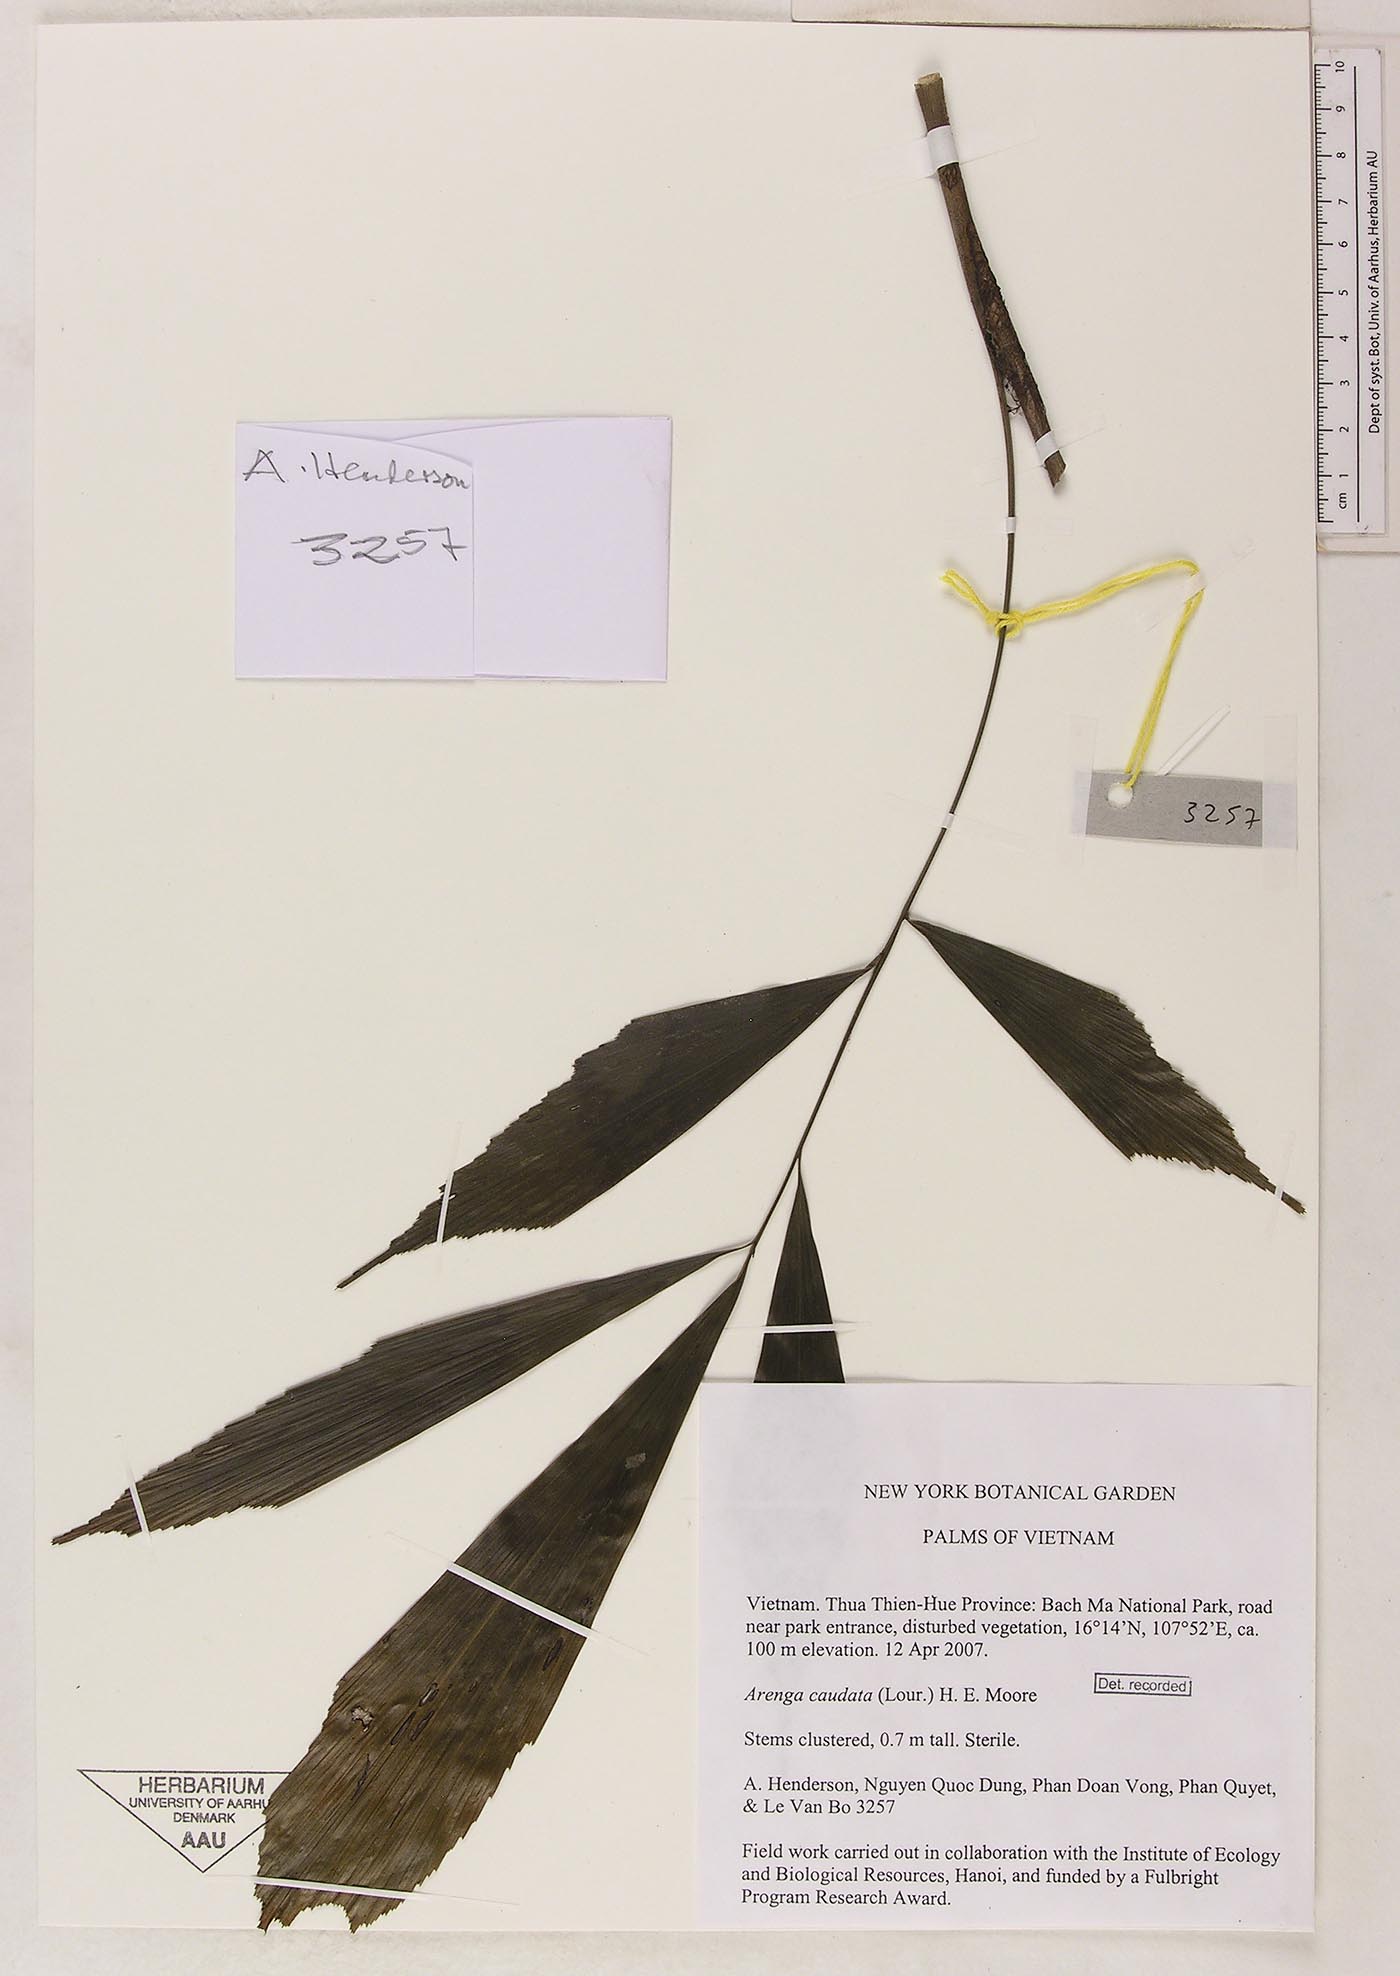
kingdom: Plantae
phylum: Tracheophyta
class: Liliopsida
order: Arecales
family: Arecaceae
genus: Arenga
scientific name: Arenga caudata
